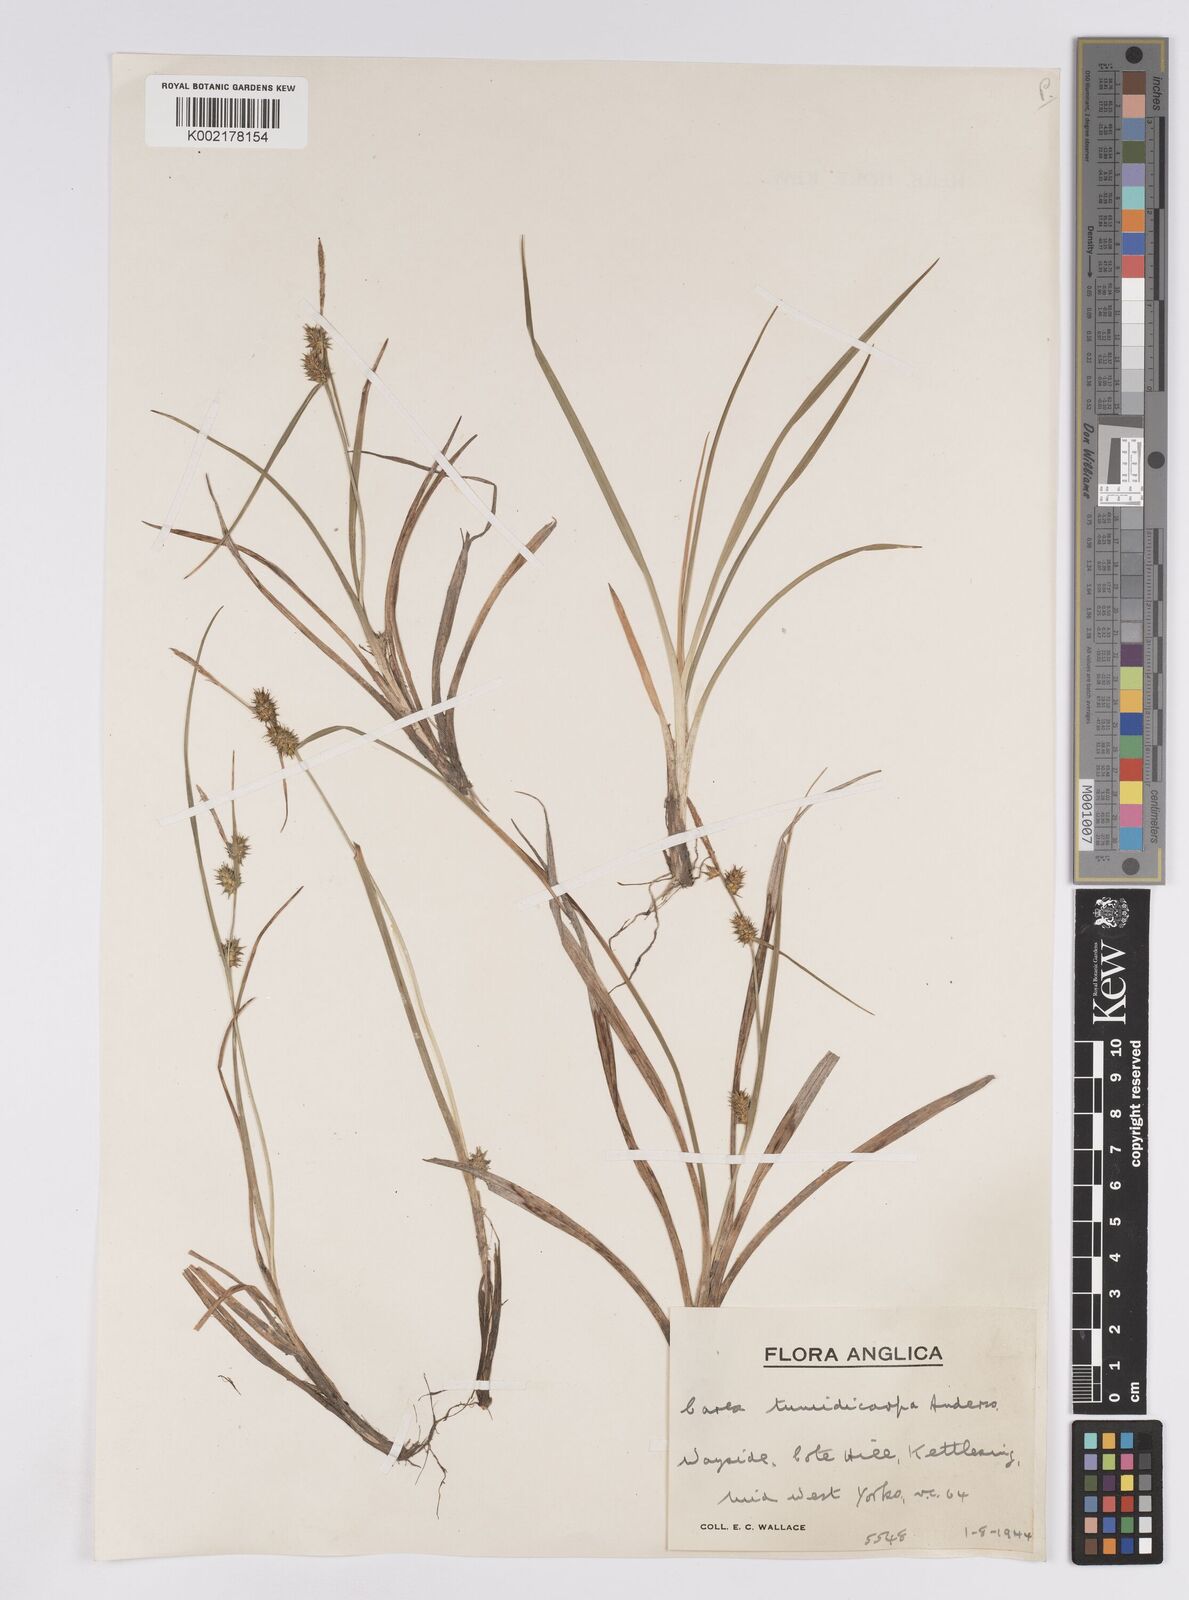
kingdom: Plantae
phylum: Tracheophyta
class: Liliopsida
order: Poales
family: Cyperaceae
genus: Carex
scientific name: Carex demissa
